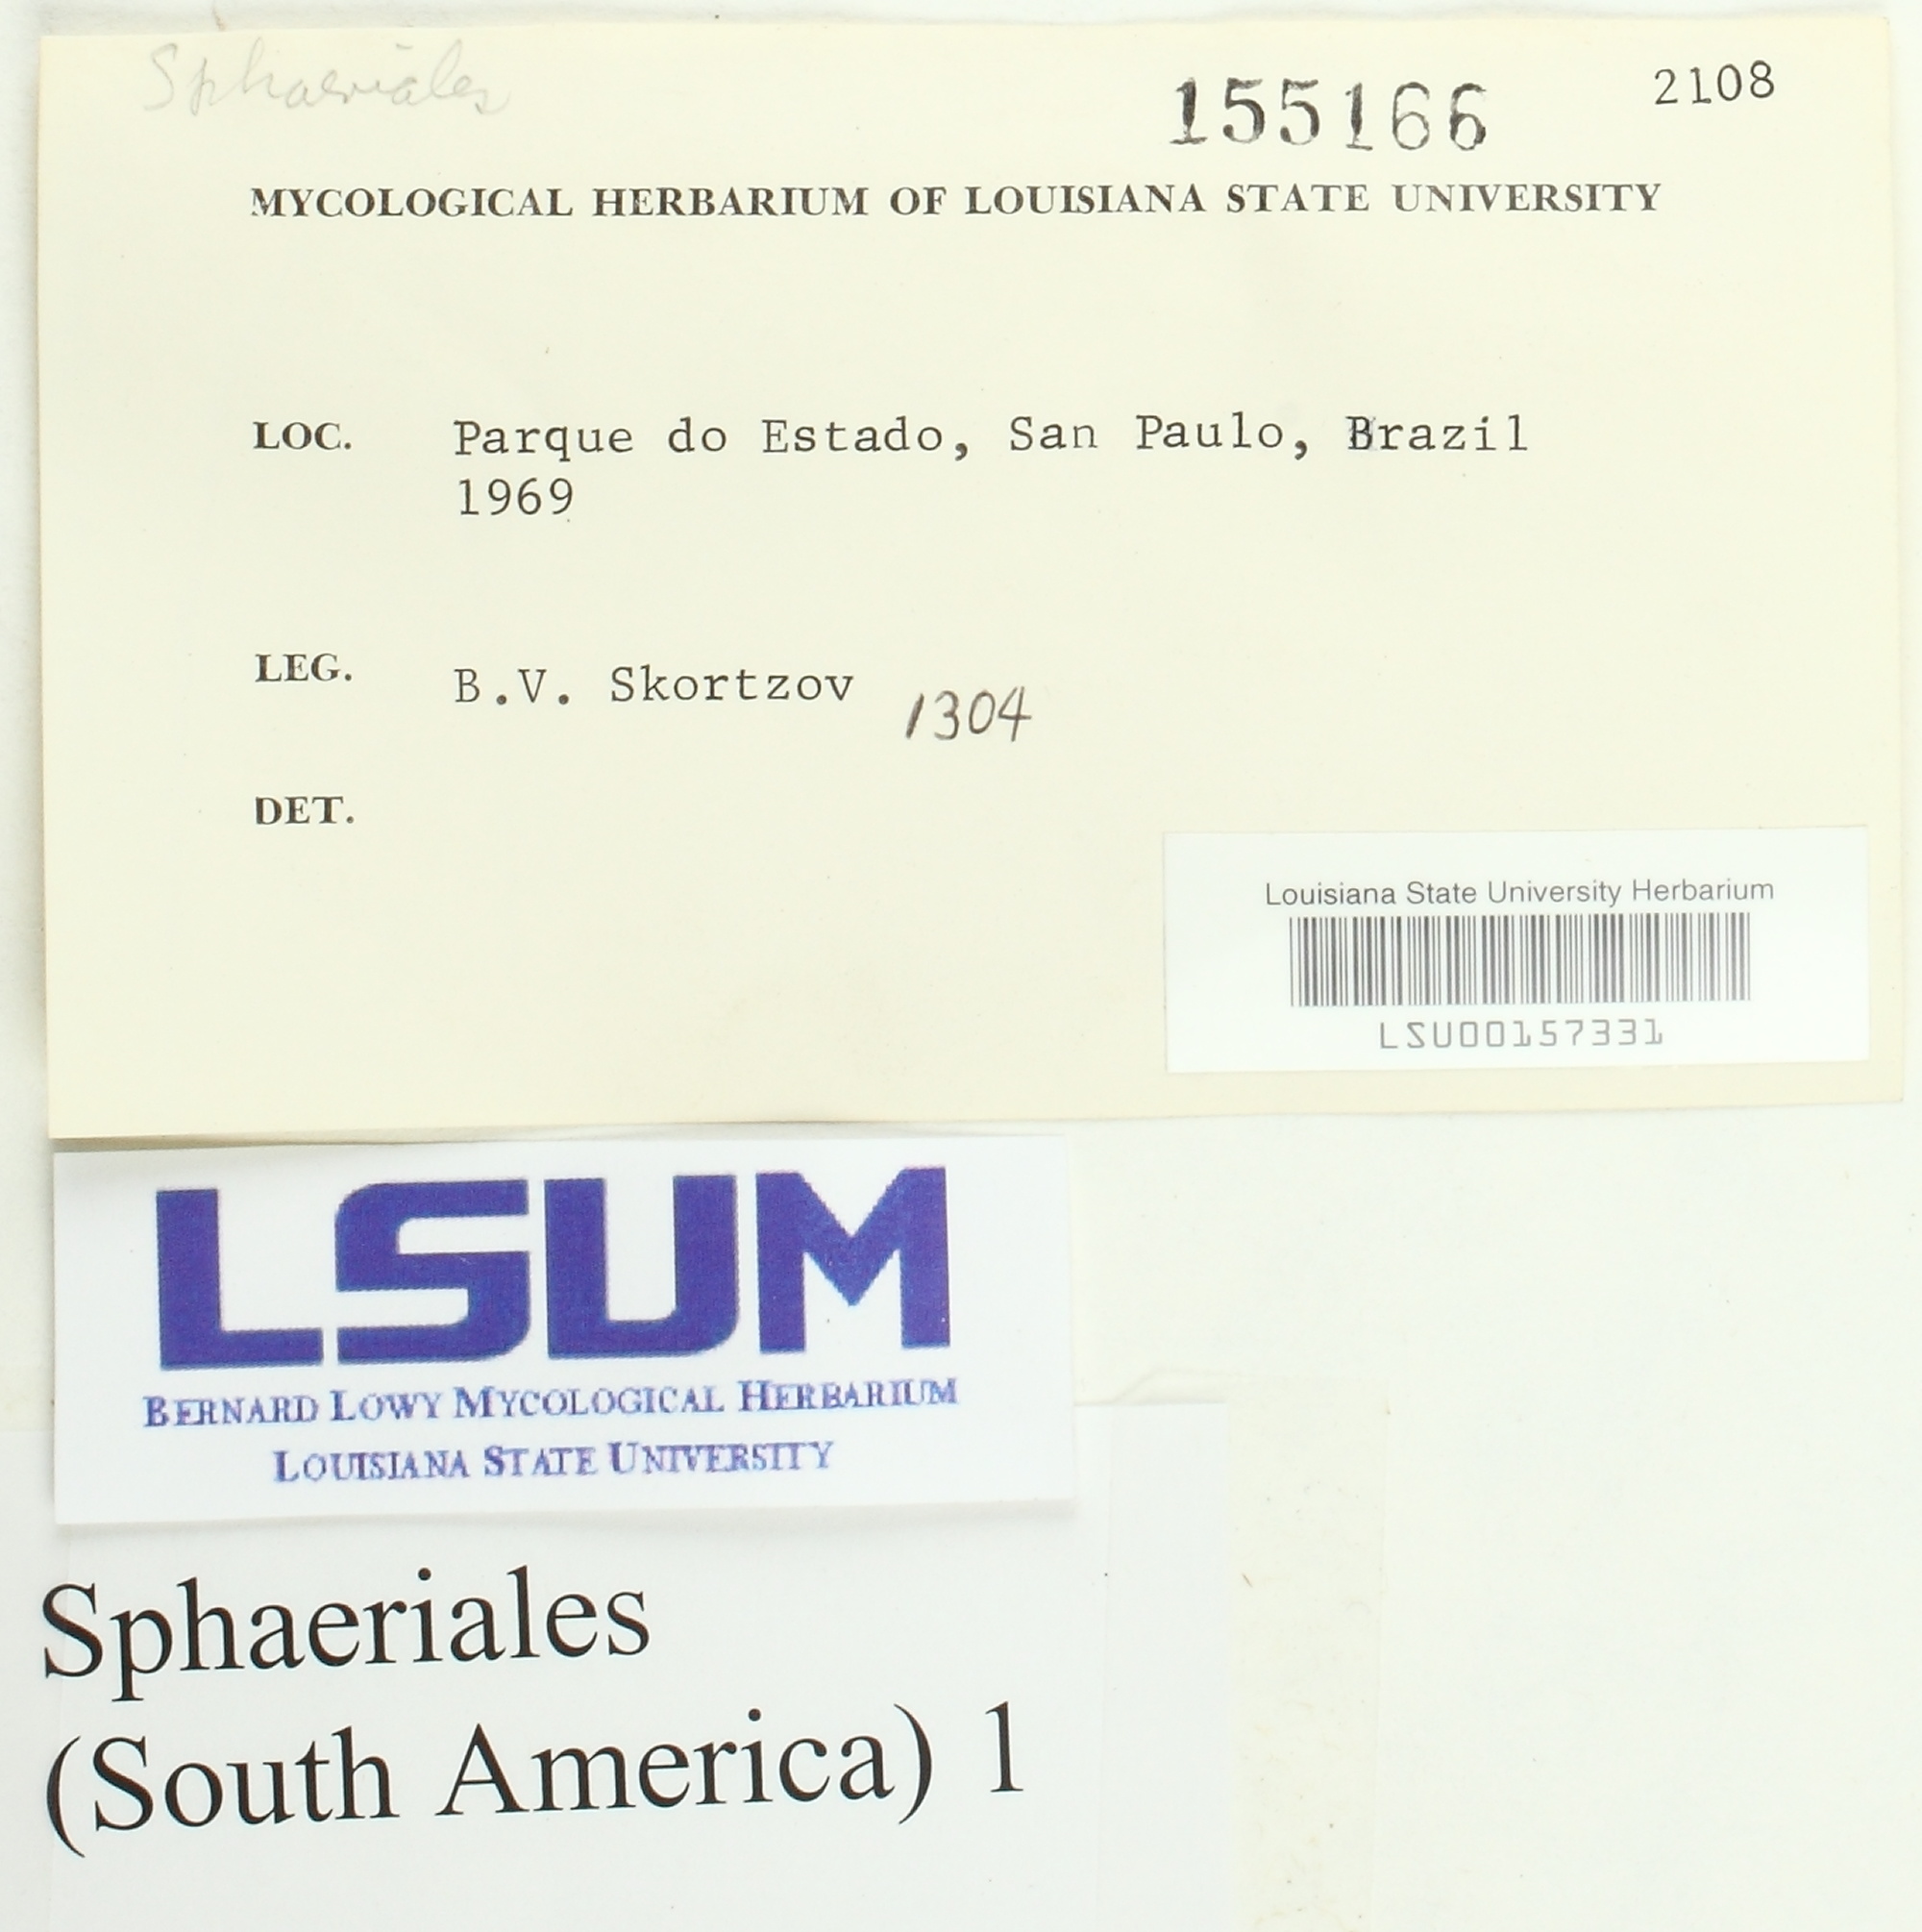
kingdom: Fungi
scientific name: Fungi
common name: Fungi
